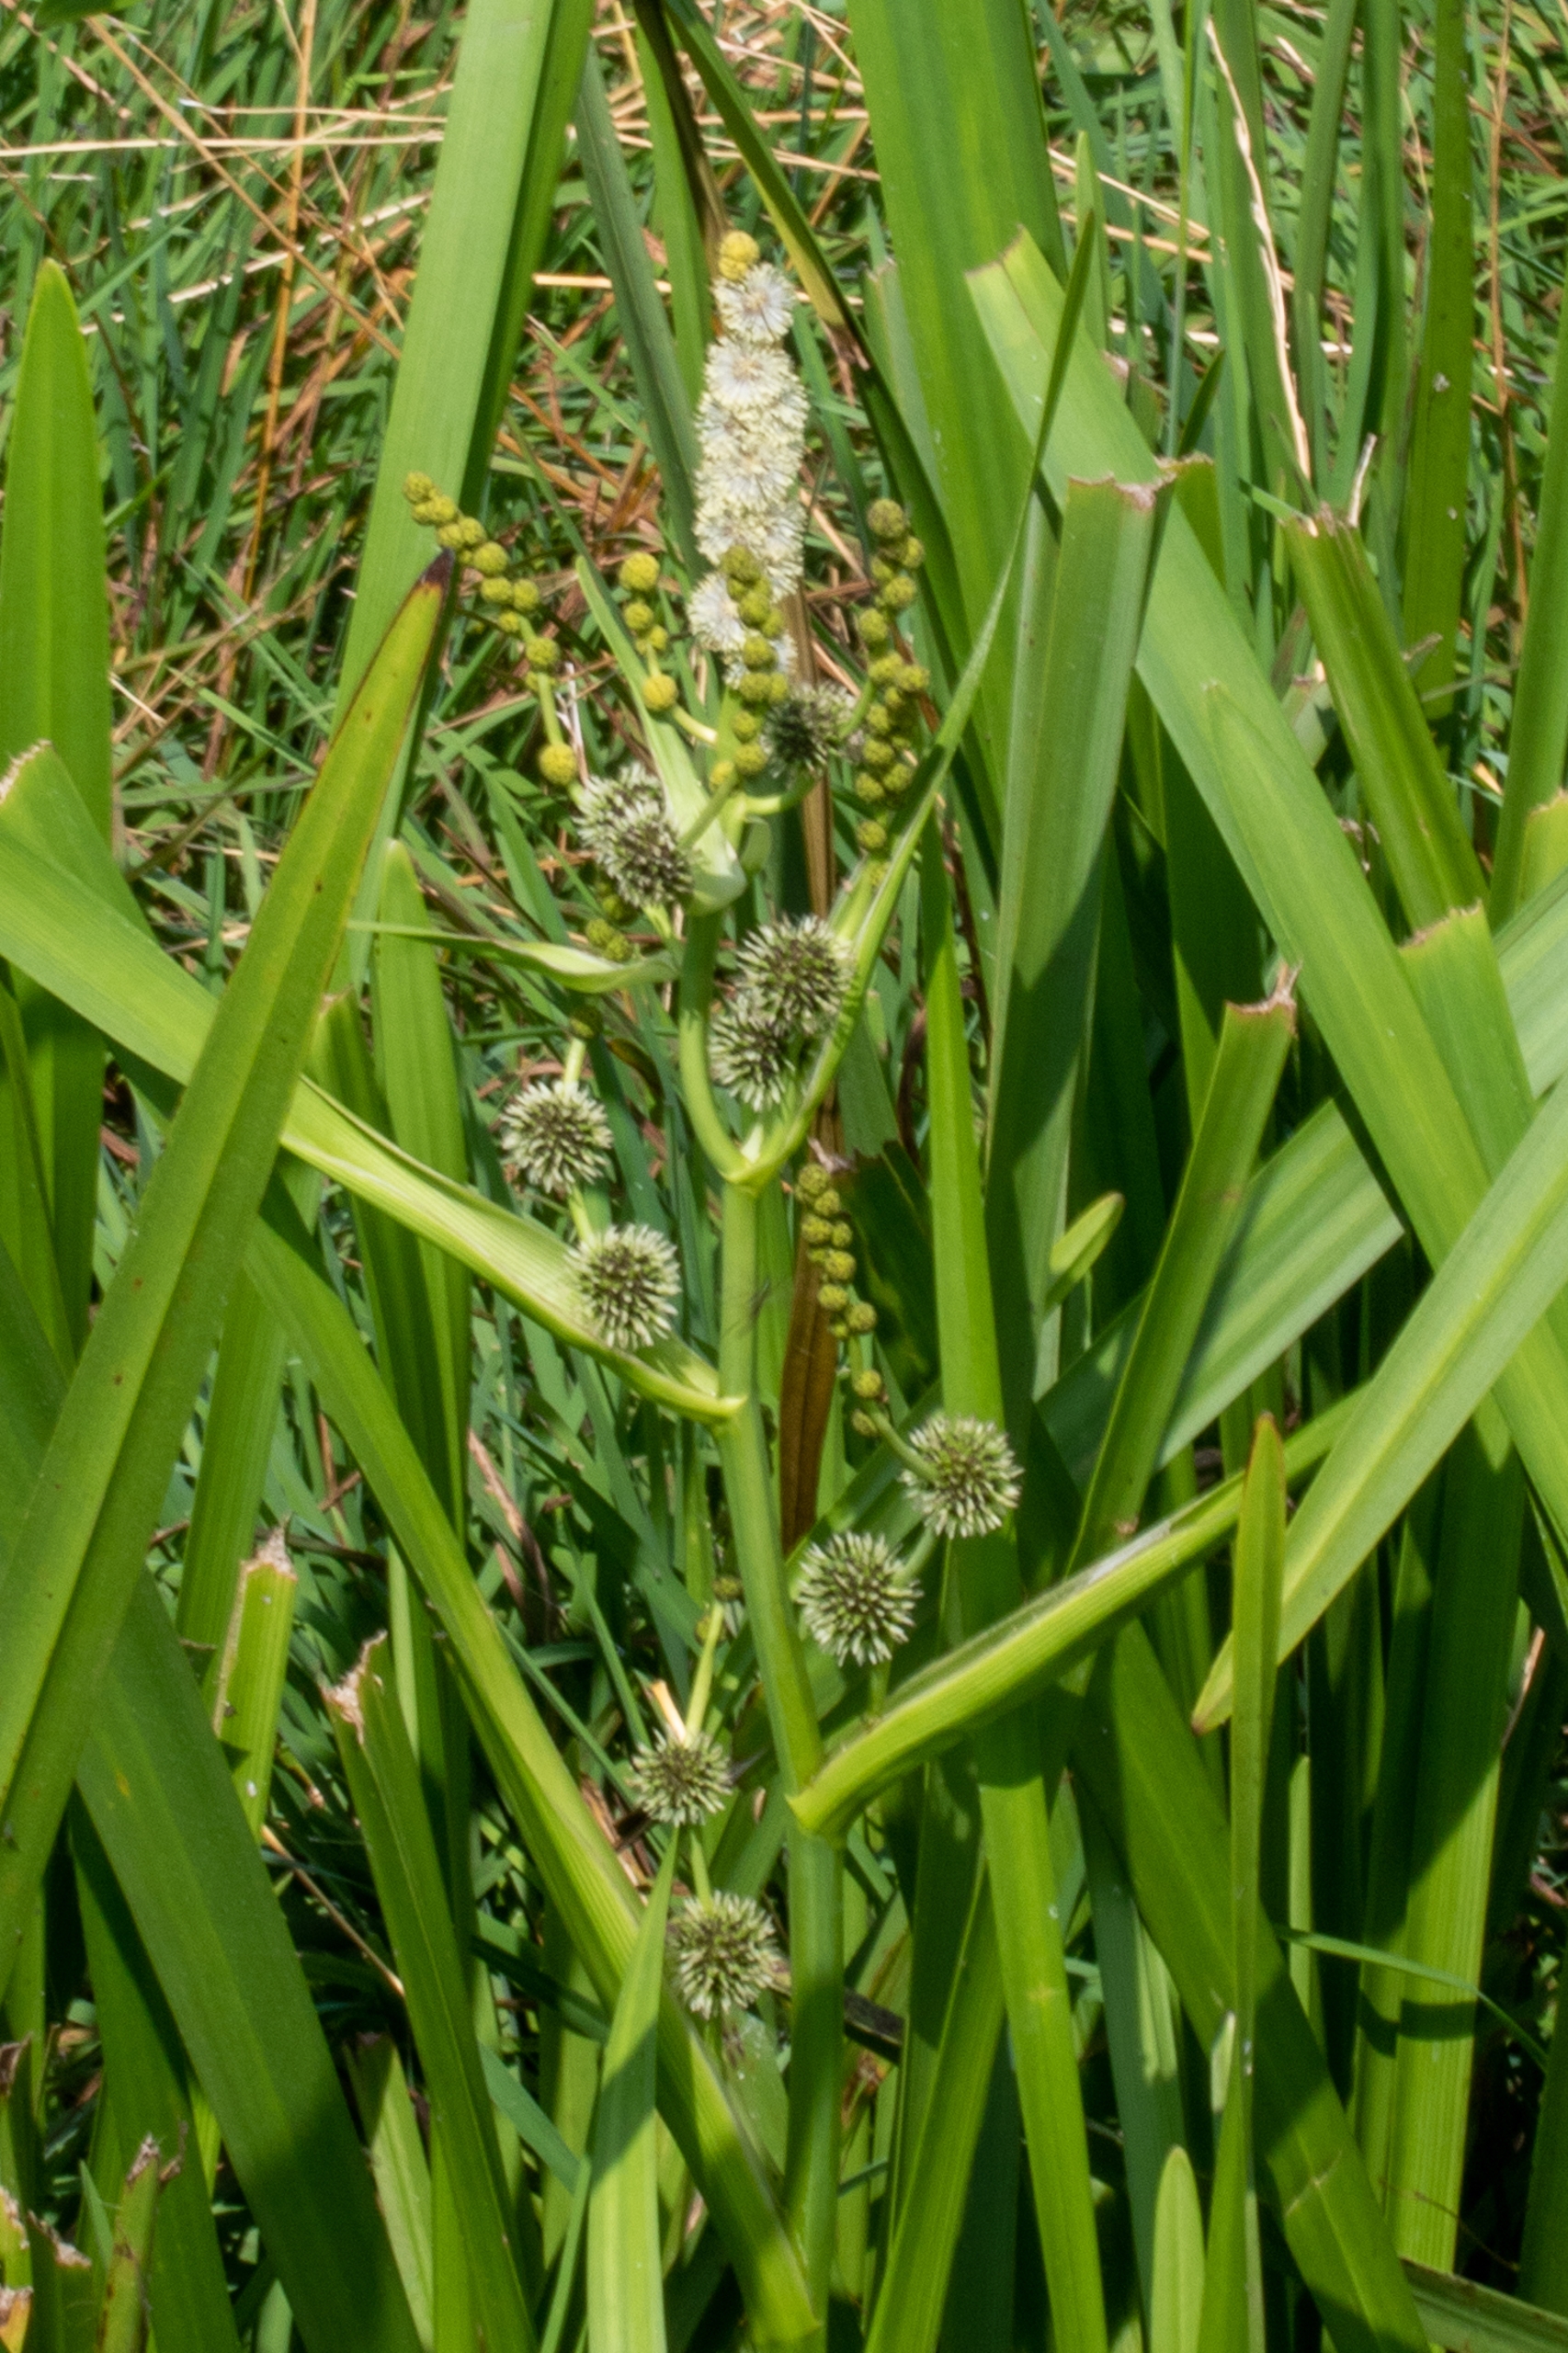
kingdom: Plantae
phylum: Tracheophyta
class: Liliopsida
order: Poales
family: Typhaceae
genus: Sparganium
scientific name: Sparganium erectum
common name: Grenet pindsvineknop
